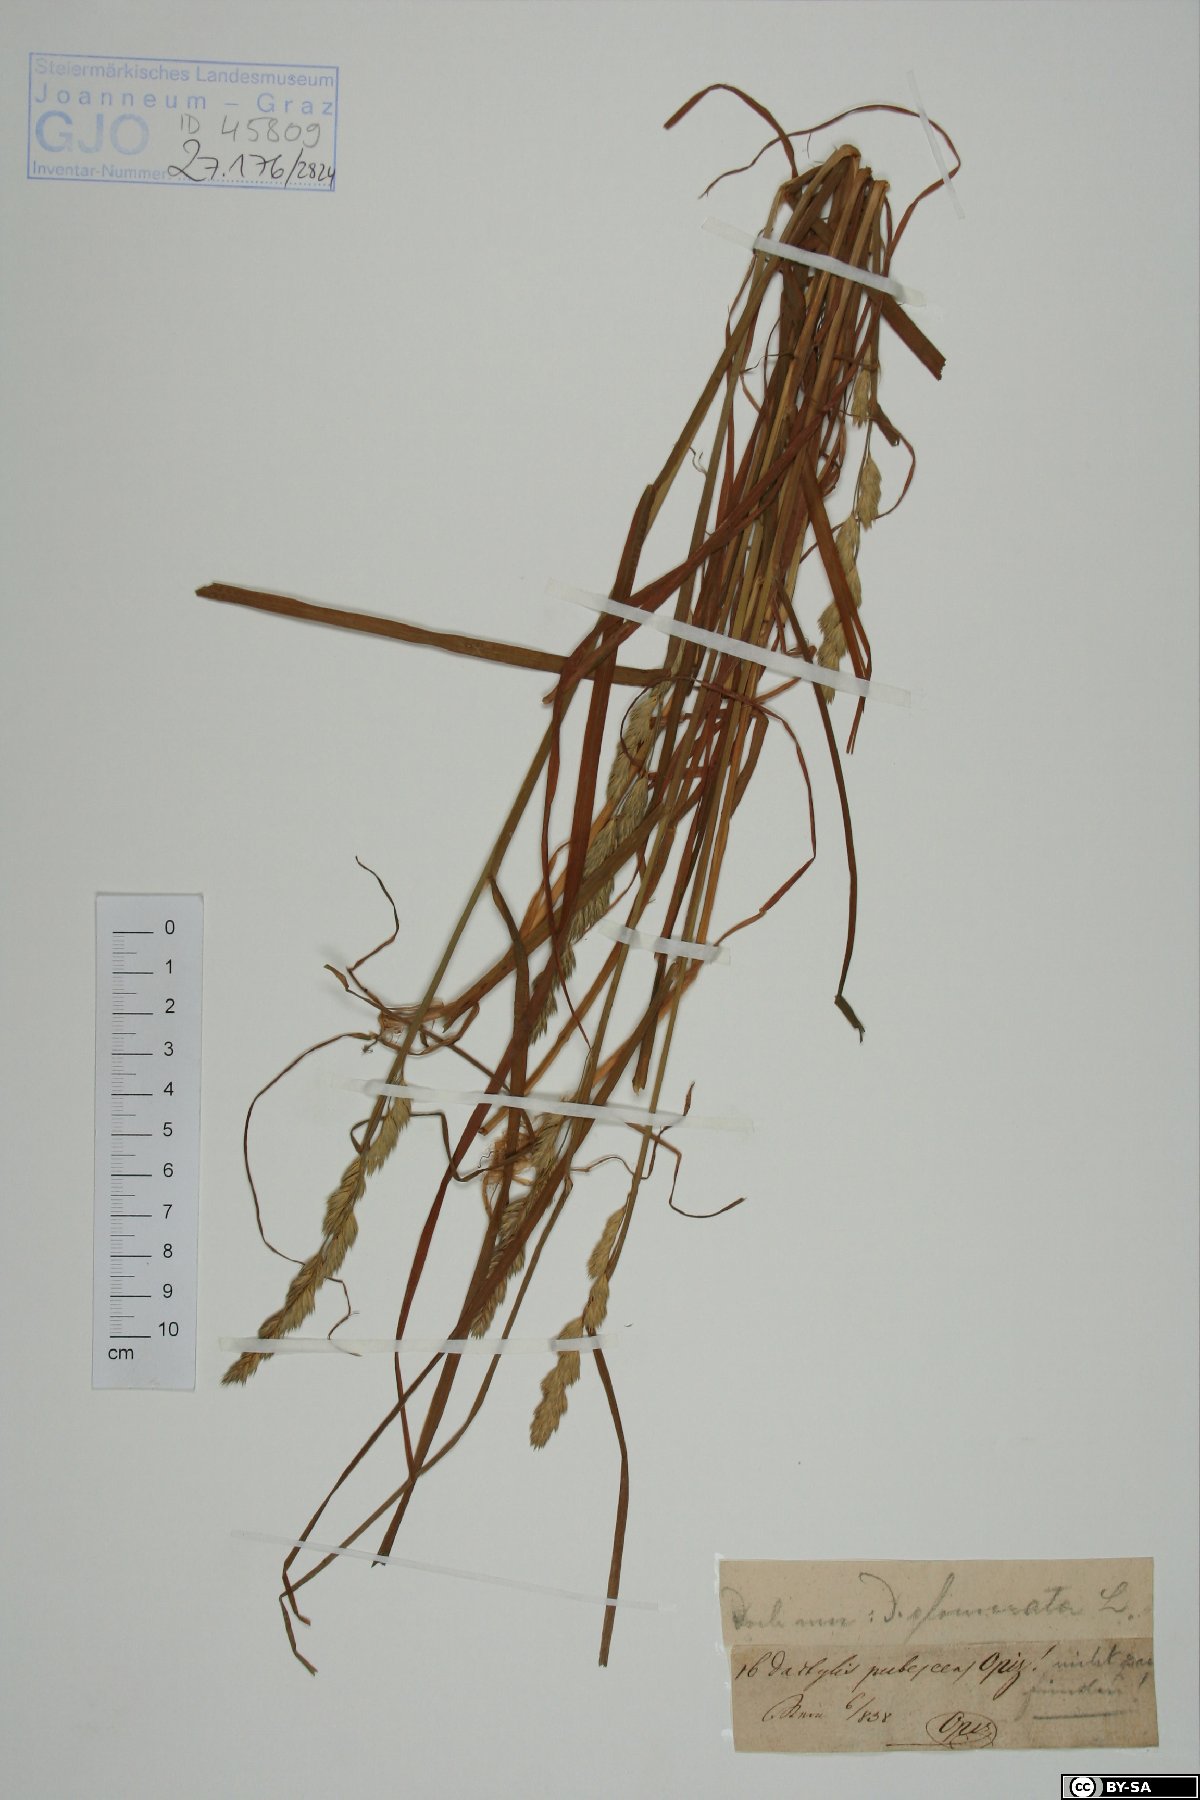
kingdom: Plantae
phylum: Tracheophyta
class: Liliopsida
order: Poales
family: Poaceae
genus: Dactylis
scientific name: Dactylis glomerata
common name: Orchardgrass
